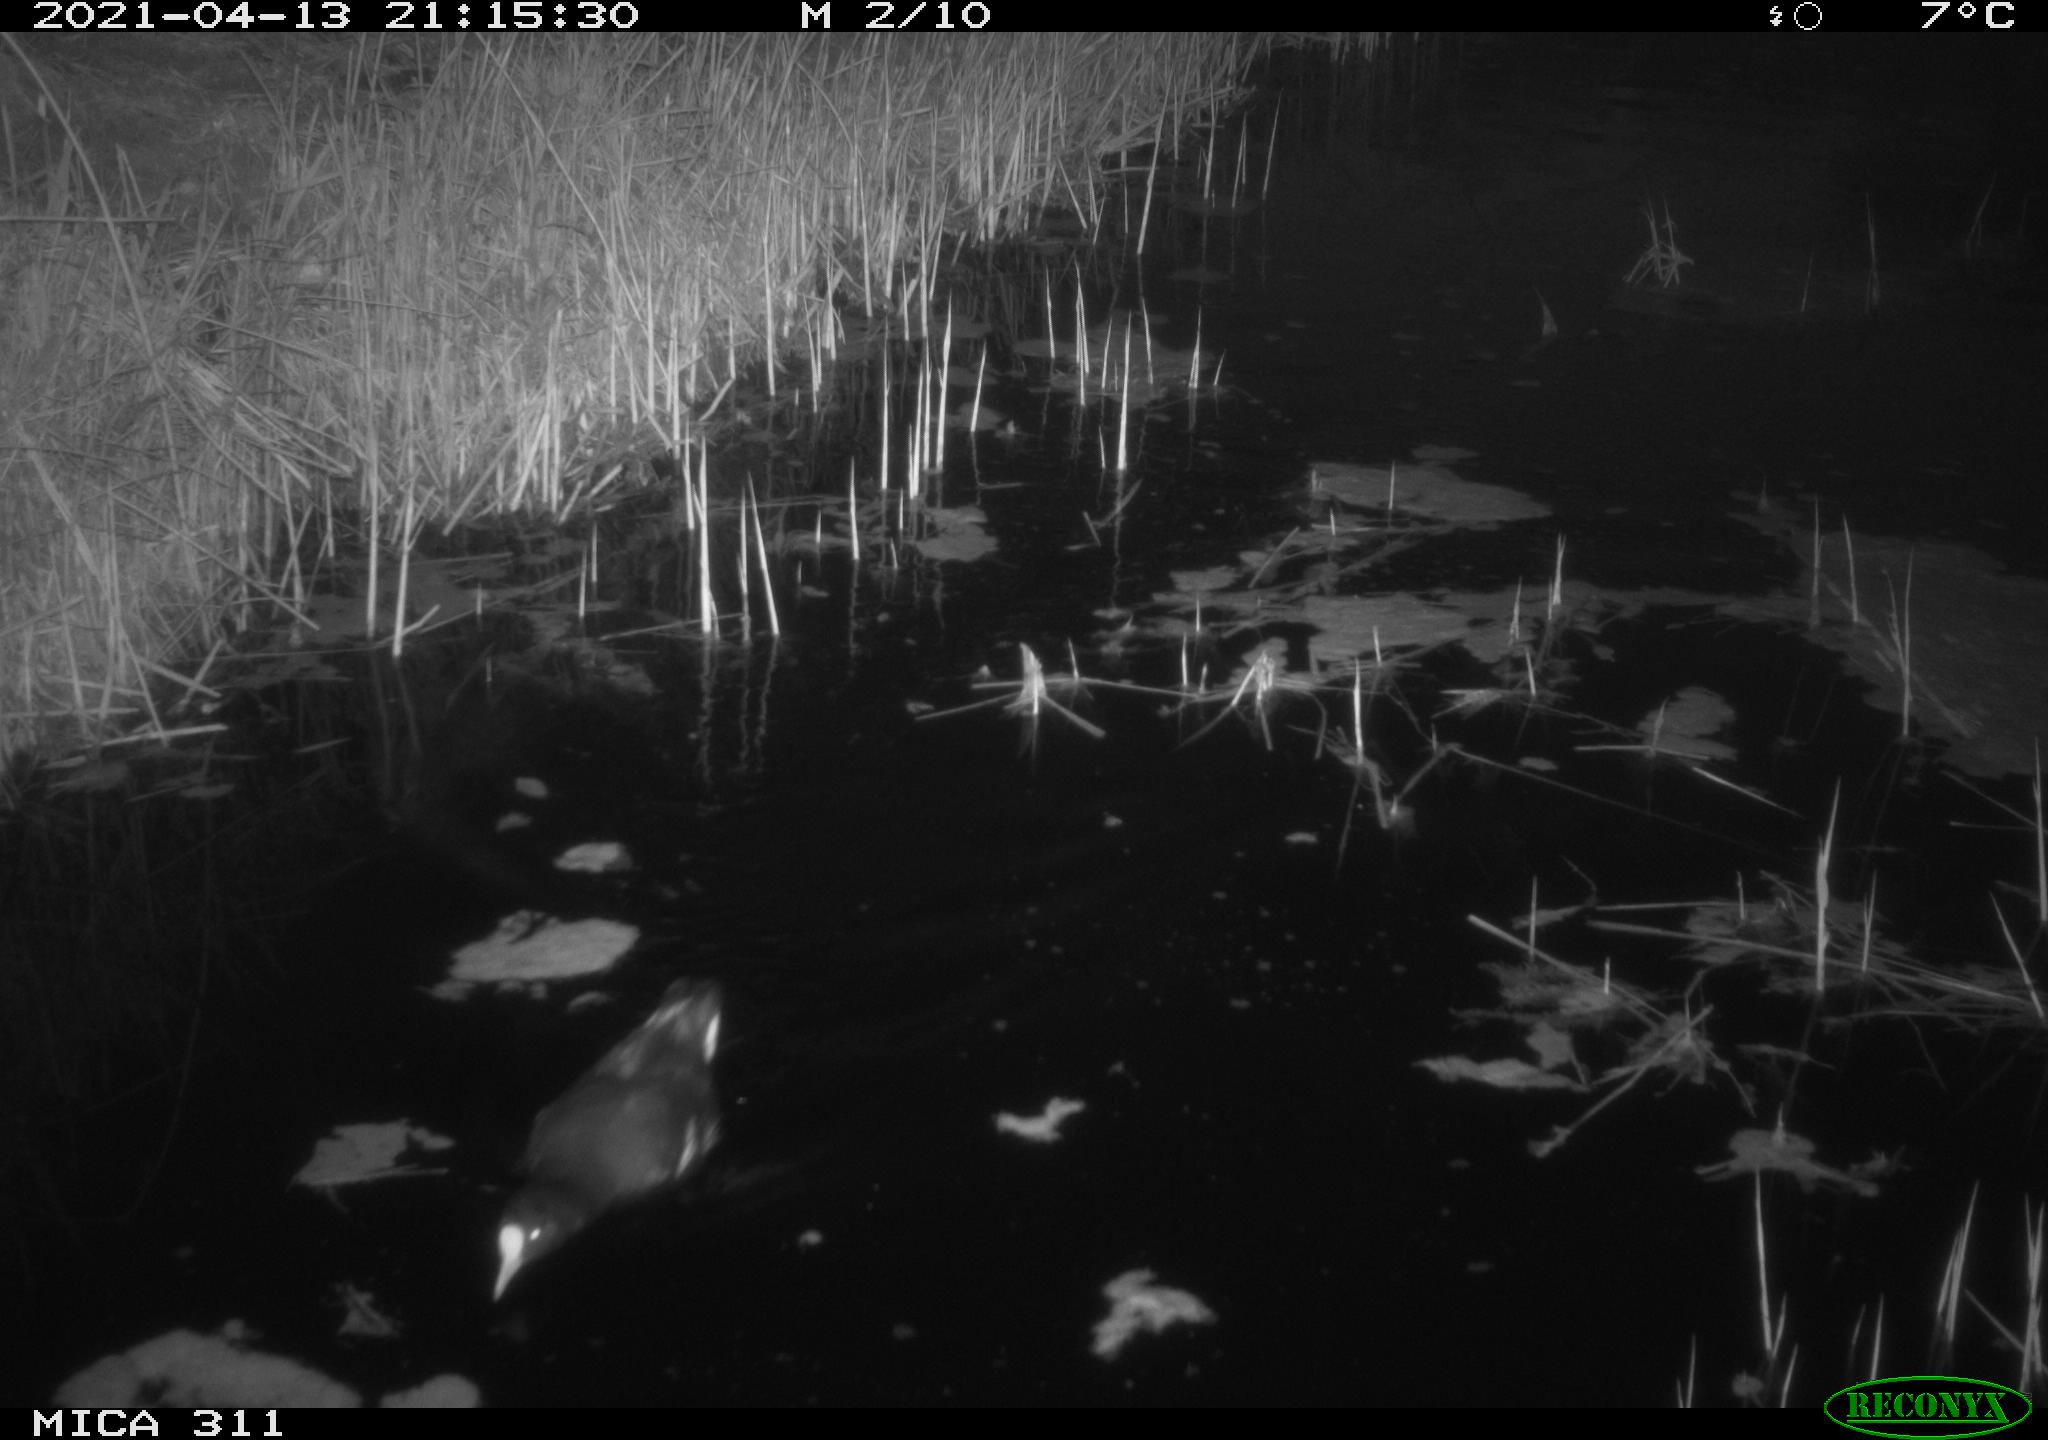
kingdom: Animalia
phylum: Chordata
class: Aves
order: Gruiformes
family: Rallidae
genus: Gallinula
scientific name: Gallinula chloropus
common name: Common moorhen
